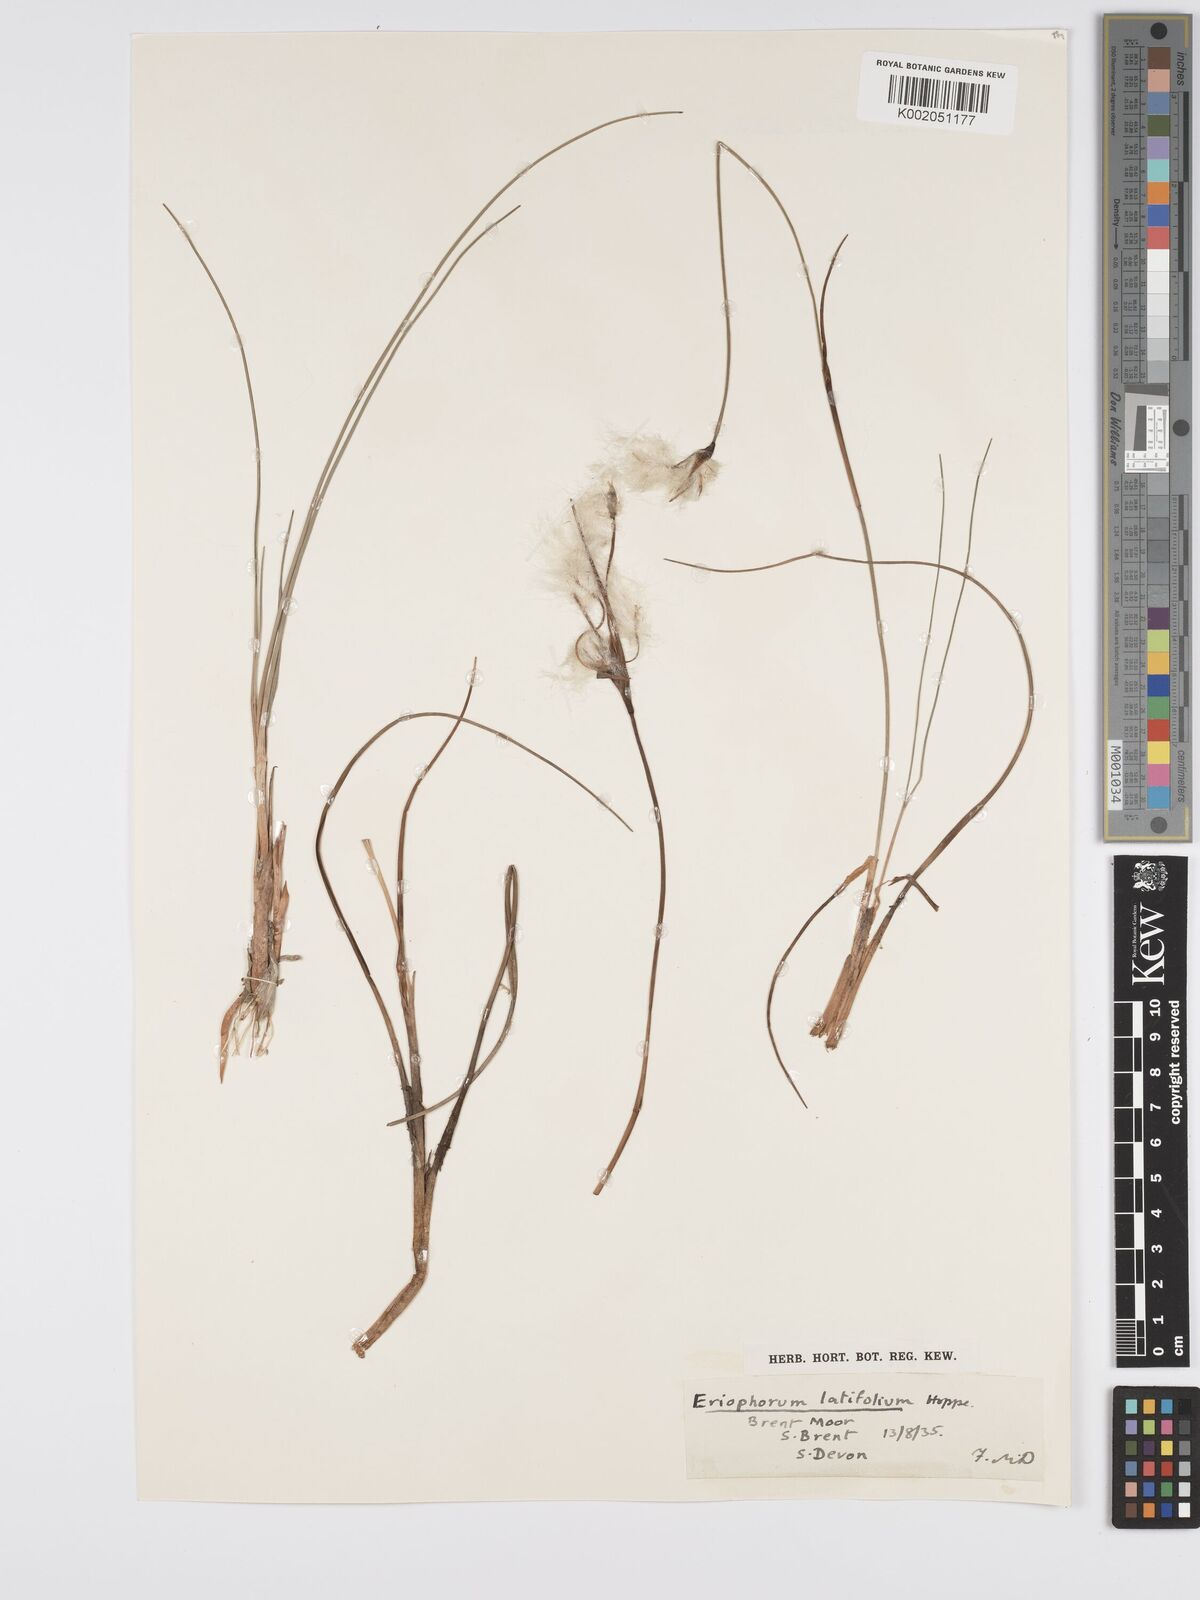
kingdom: Plantae
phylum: Tracheophyta
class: Liliopsida
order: Poales
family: Cyperaceae
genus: Eriophorum
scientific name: Eriophorum latifolium
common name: Broad-leaved cottongrass
